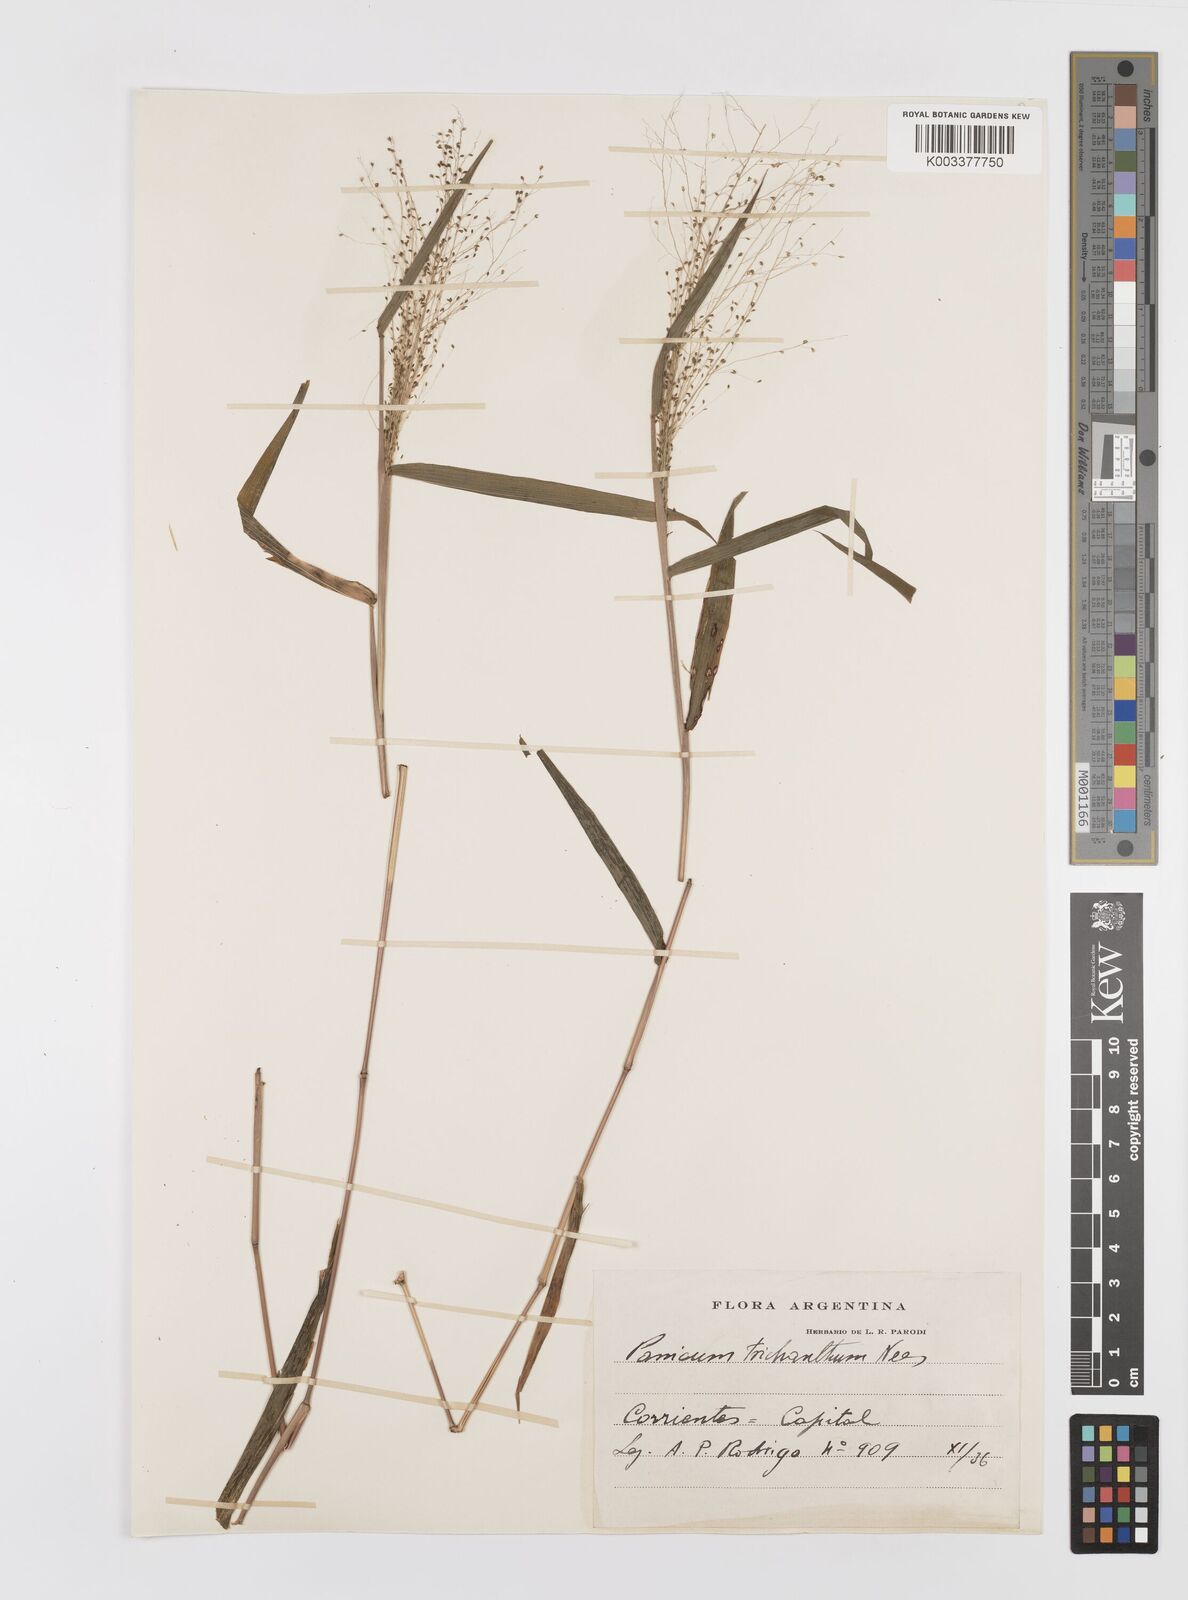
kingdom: Plantae
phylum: Tracheophyta
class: Liliopsida
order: Poales
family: Poaceae
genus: Panicum
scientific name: Panicum trichanthum
